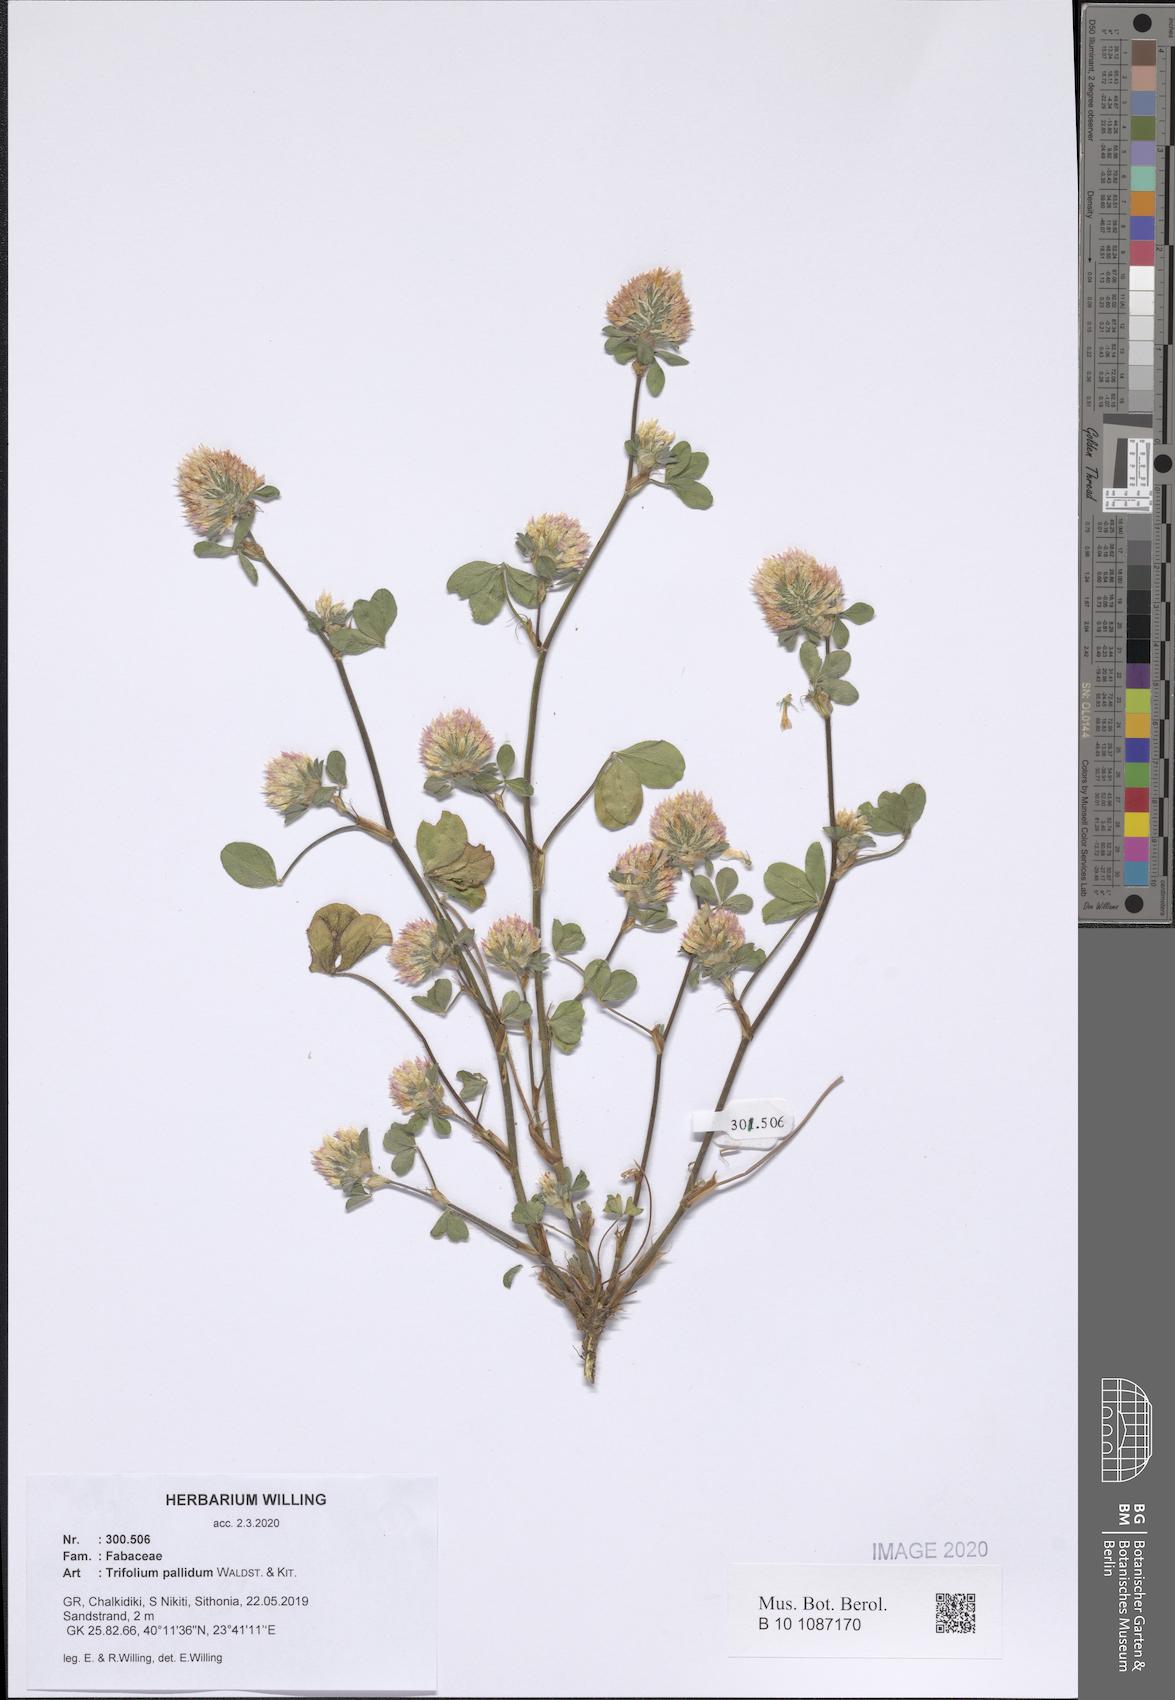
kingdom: Plantae
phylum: Tracheophyta
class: Magnoliopsida
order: Fabales
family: Fabaceae
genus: Trifolium
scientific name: Trifolium pallidum
